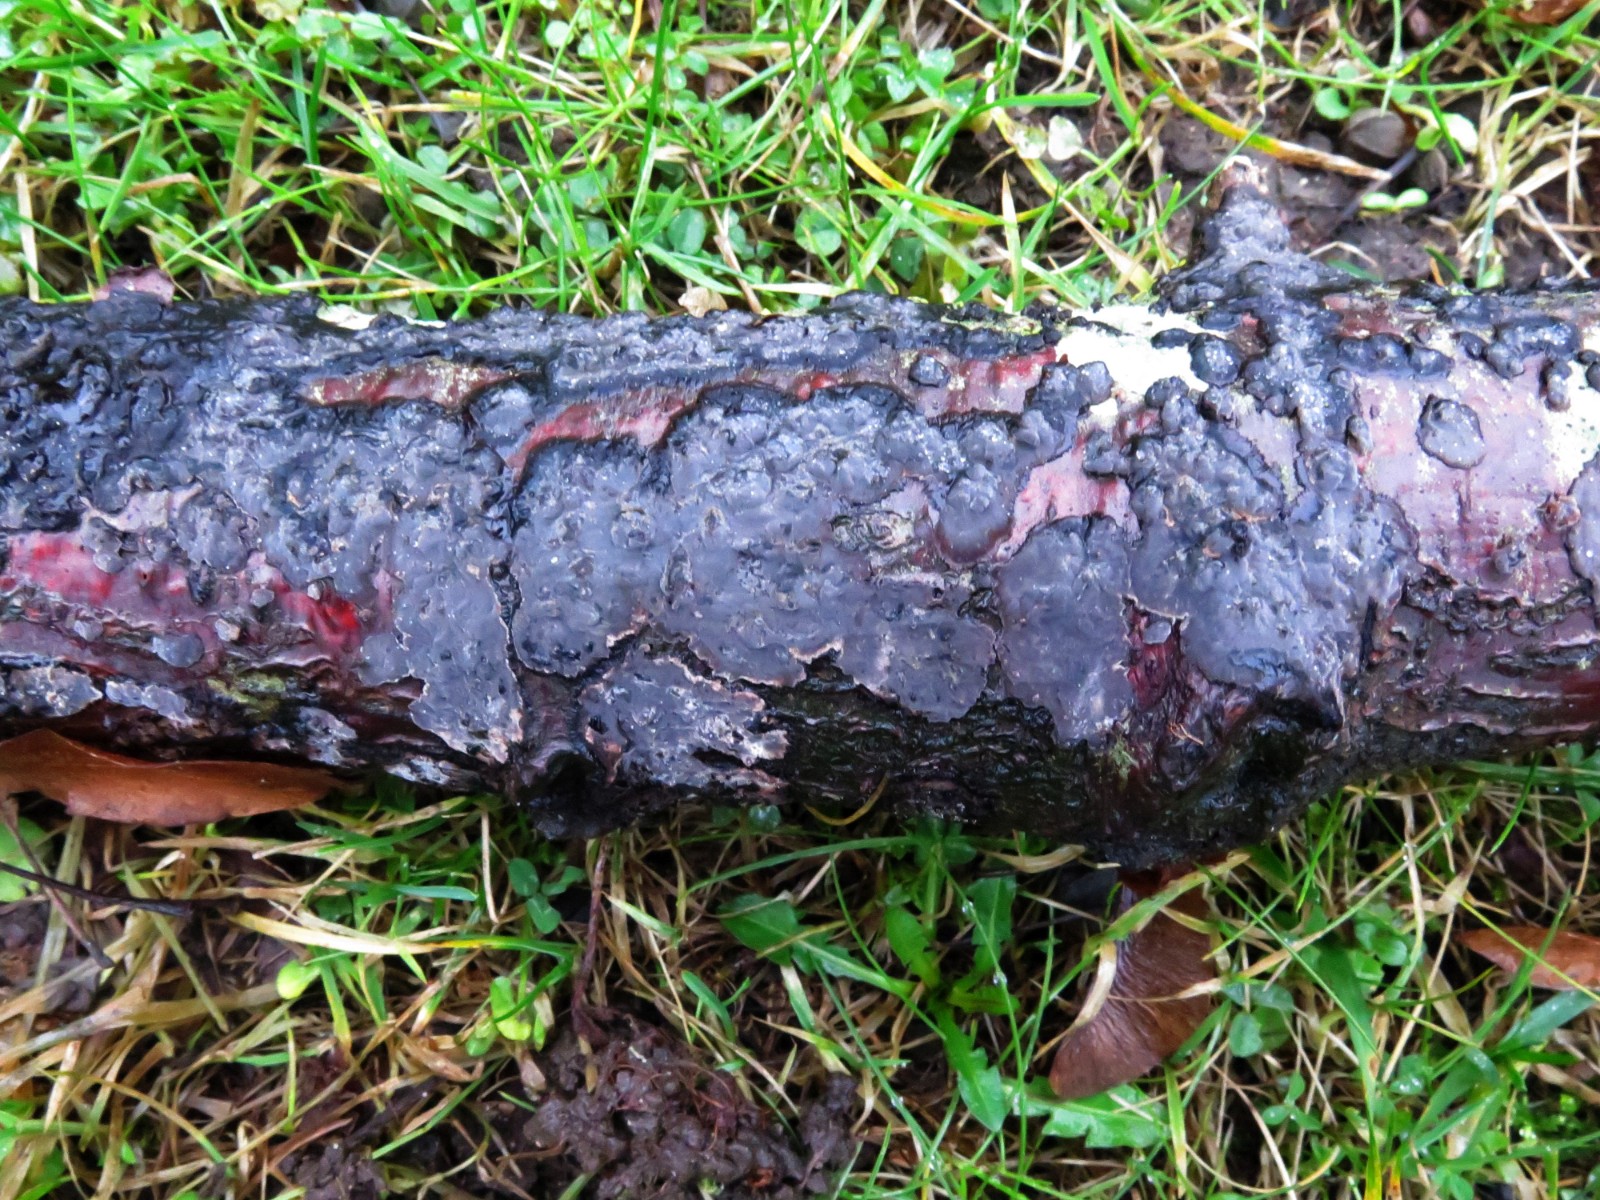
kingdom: Fungi
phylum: Basidiomycota
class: Agaricomycetes
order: Russulales
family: Peniophoraceae
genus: Peniophora
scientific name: Peniophora rufomarginata
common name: linde-voksskind
